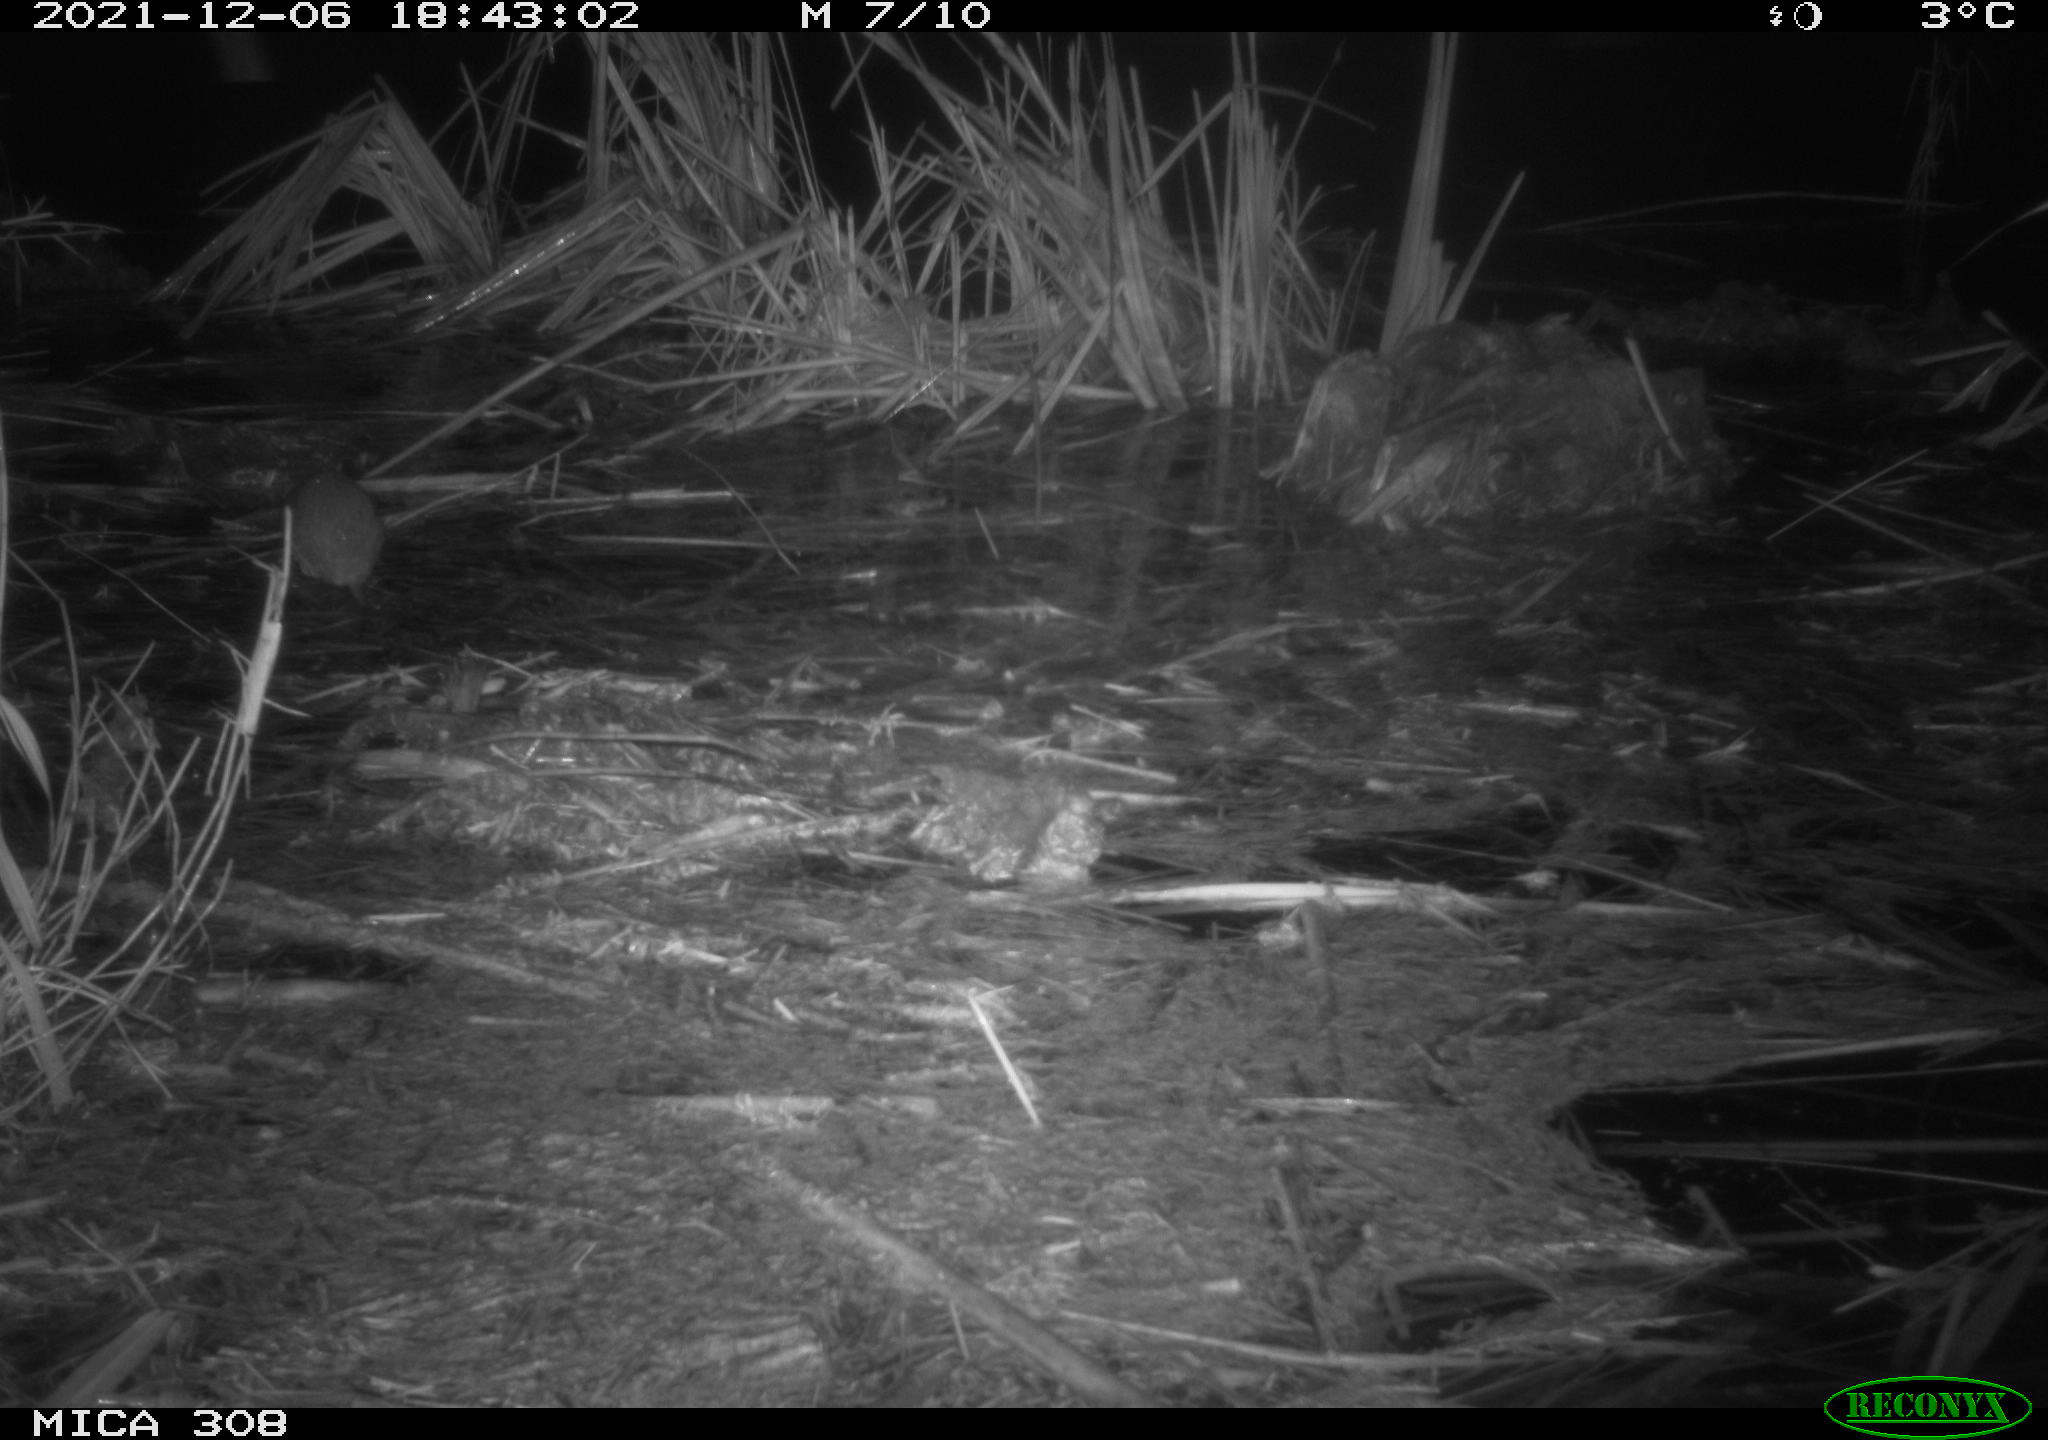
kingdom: Animalia
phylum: Chordata
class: Mammalia
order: Rodentia
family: Muridae
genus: Rattus
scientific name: Rattus norvegicus
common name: Brown rat
